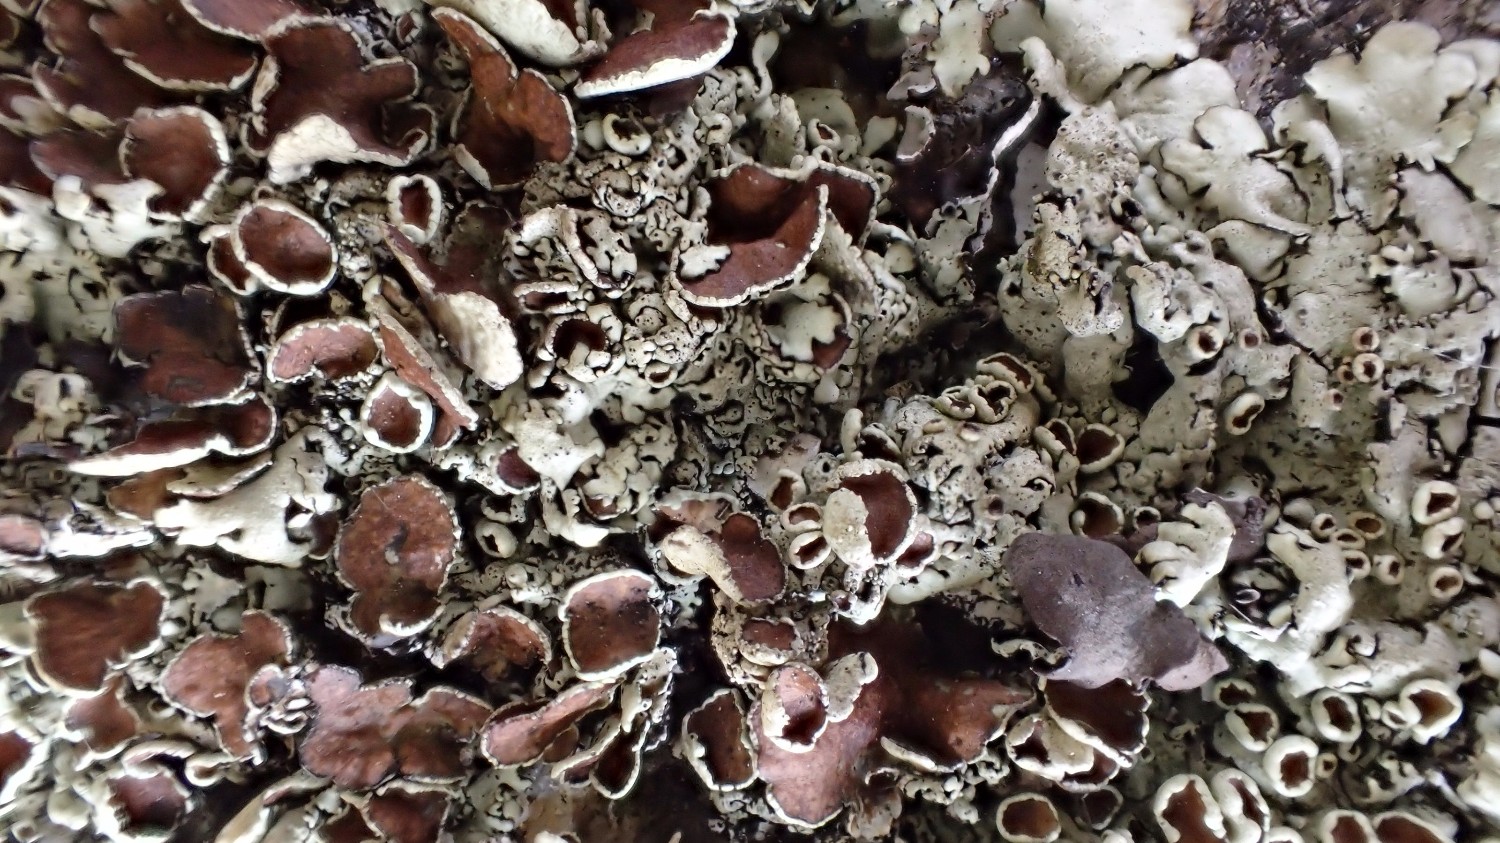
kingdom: Fungi
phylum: Ascomycota
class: Lecanoromycetes
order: Lecanorales
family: Parmeliaceae
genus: Xanthoparmelia
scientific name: Xanthoparmelia conspersa
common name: messing-skållav
